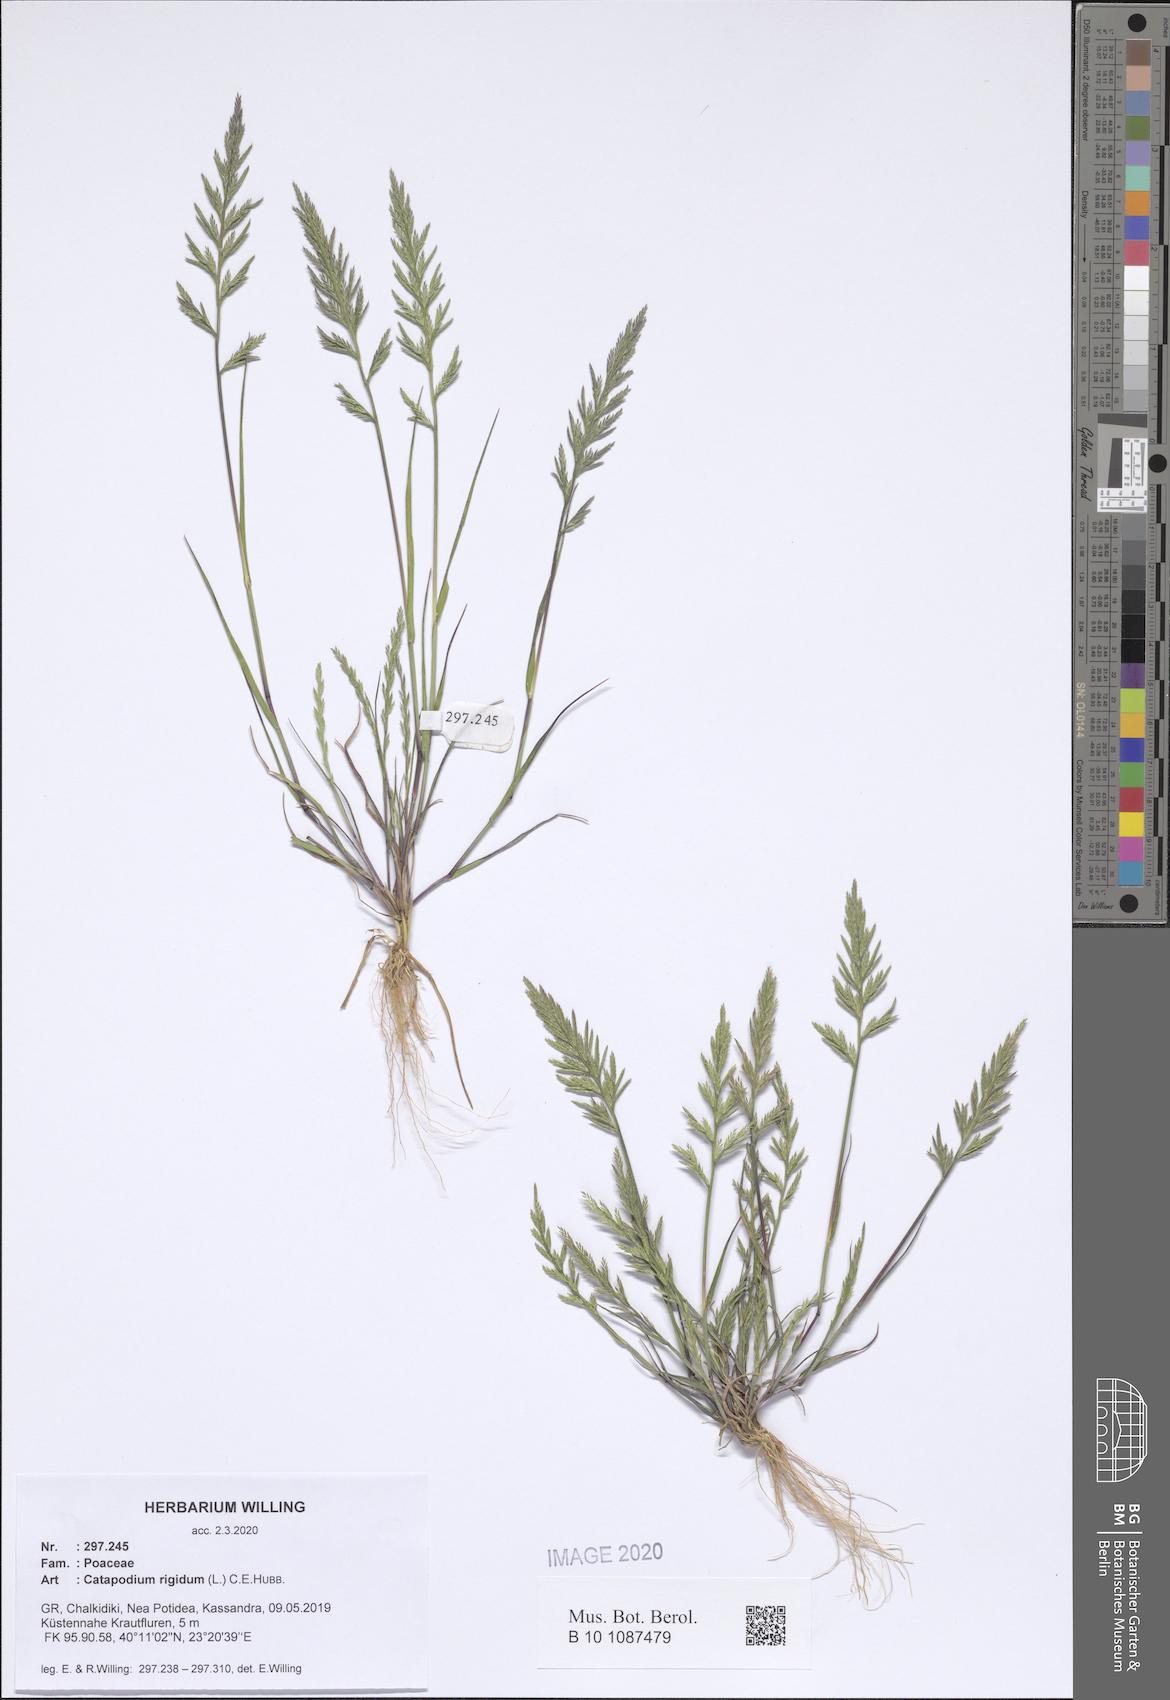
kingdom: Plantae
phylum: Tracheophyta
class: Liliopsida
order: Poales
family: Poaceae
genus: Catapodium
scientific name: Catapodium rigidum
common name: Fern-grass
